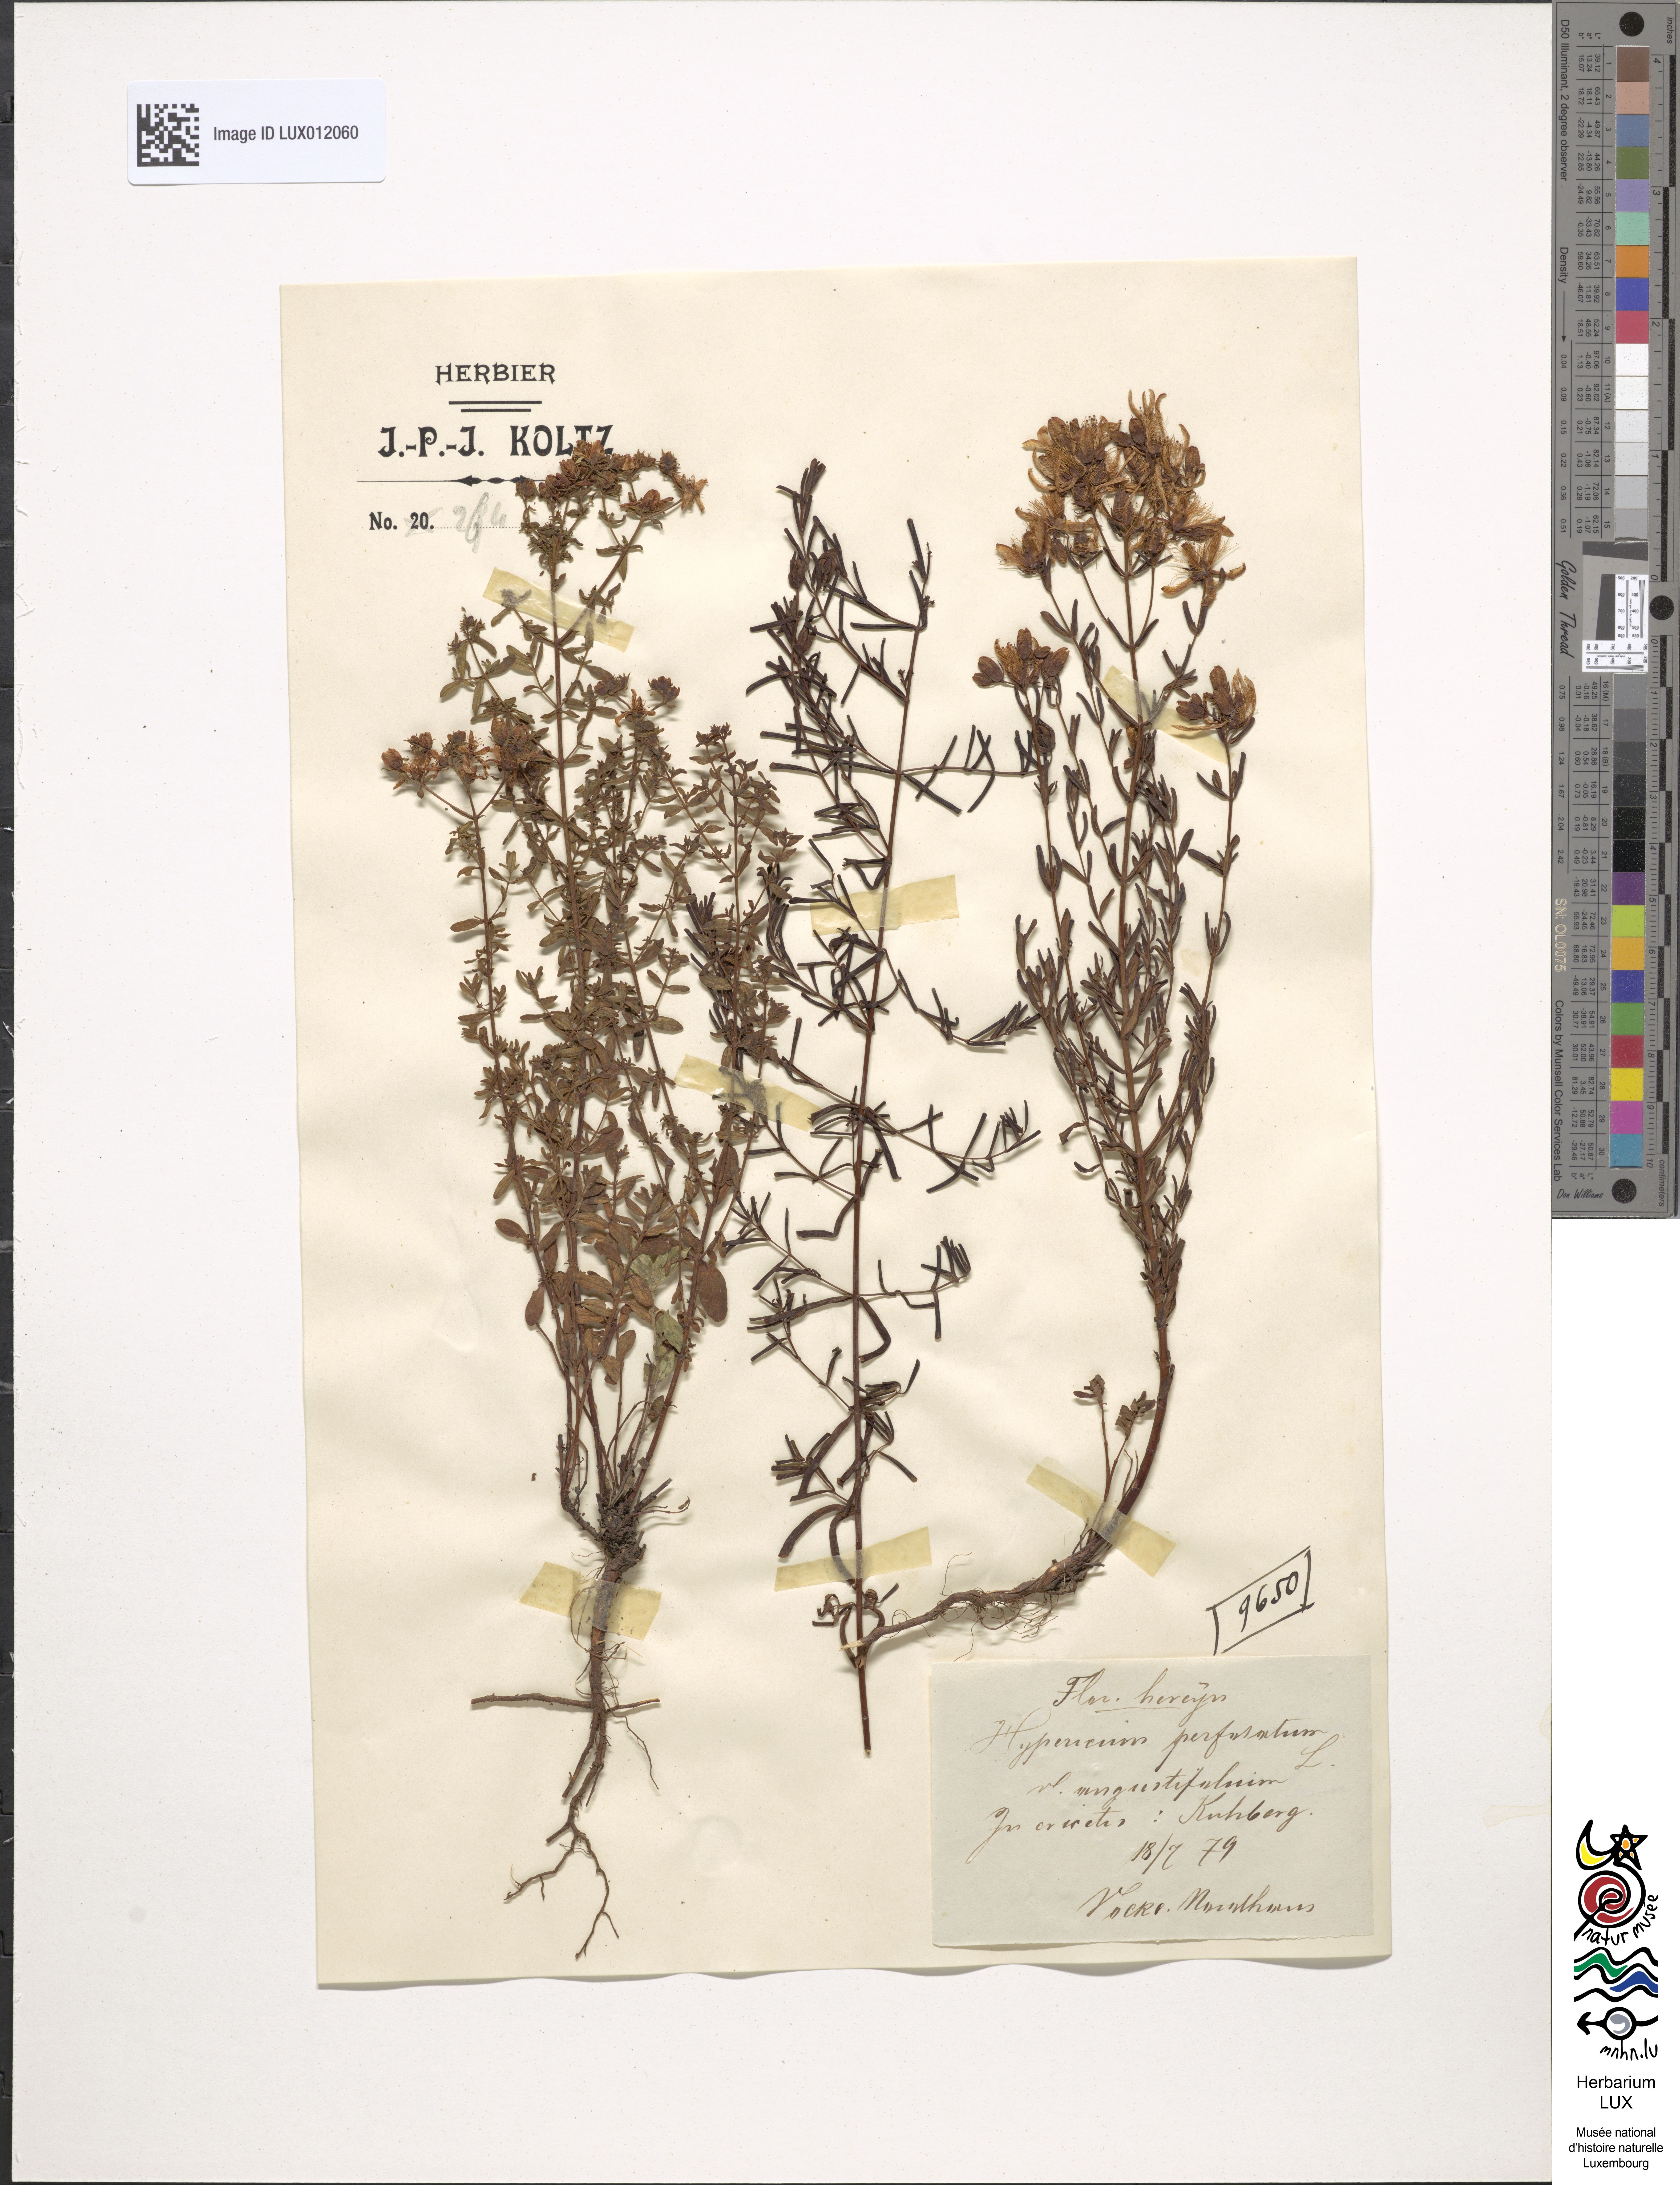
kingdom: Plantae
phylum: Tracheophyta
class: Magnoliopsida
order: Malpighiales
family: Hypericaceae
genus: Hypericum
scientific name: Hypericum perforatum
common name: Common st. johnswort
